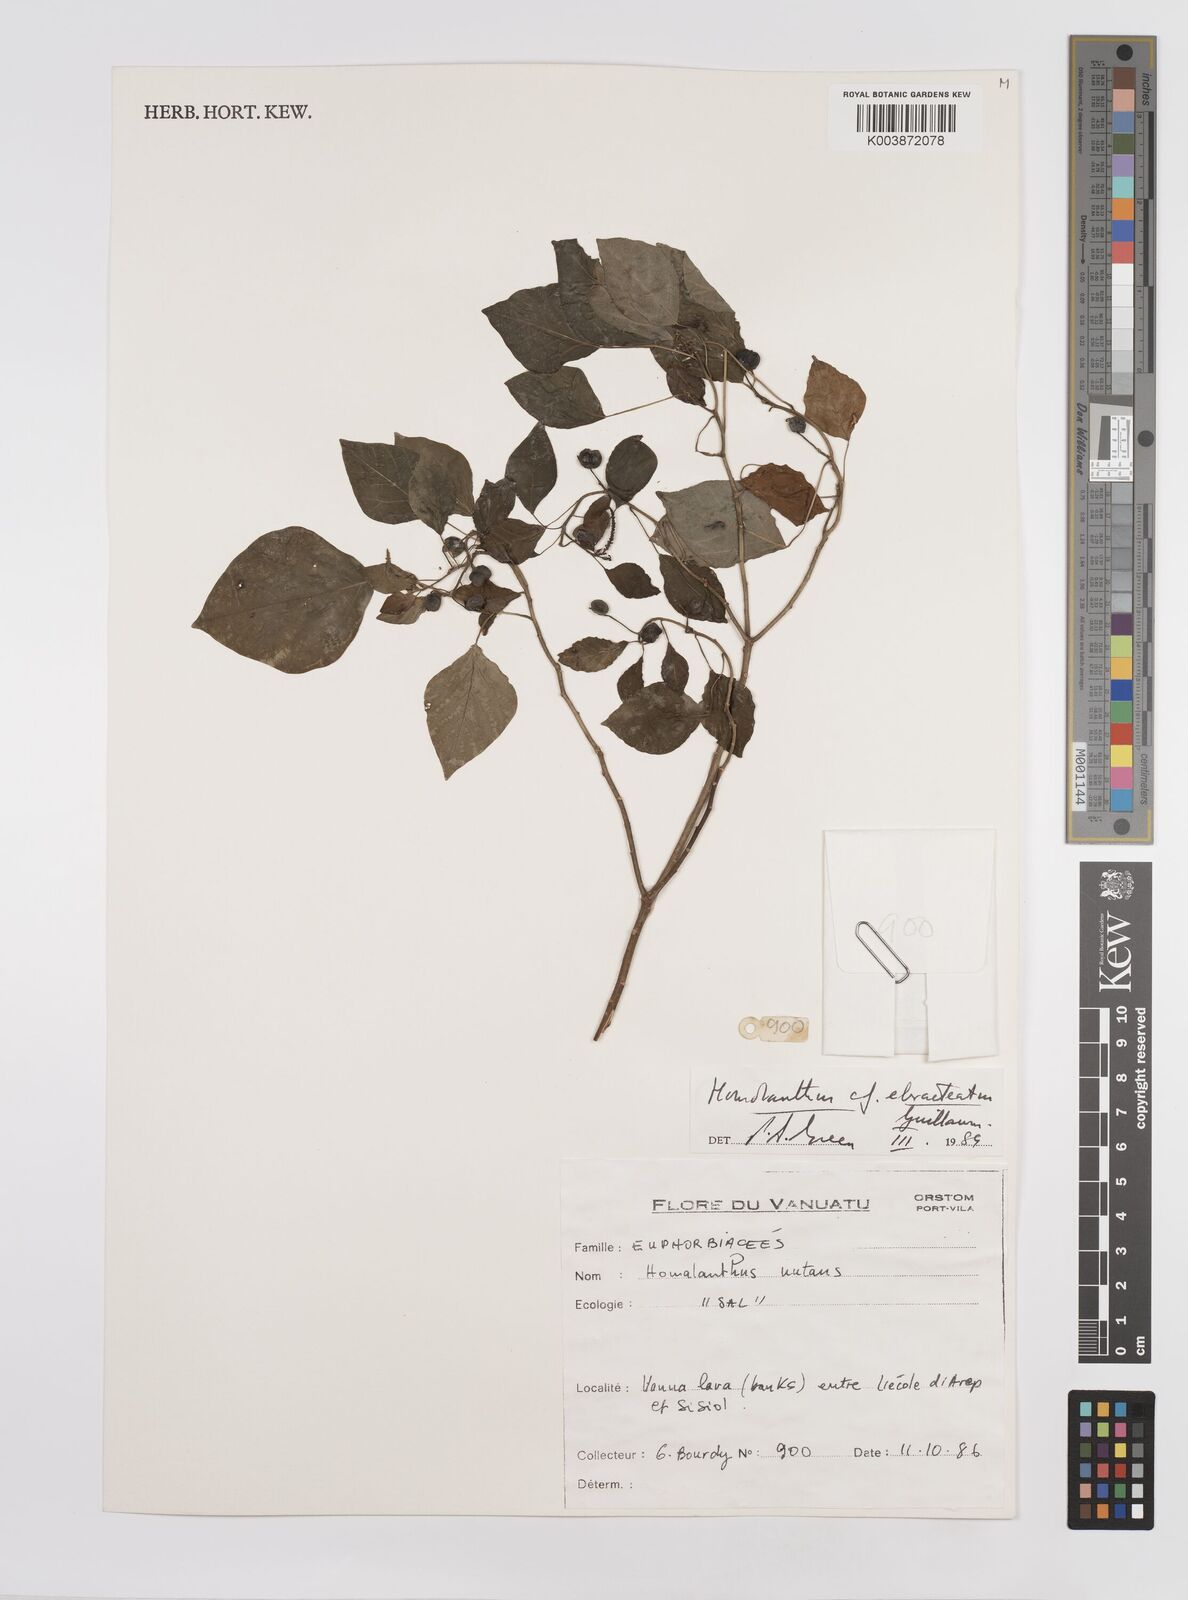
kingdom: Plantae
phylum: Tracheophyta
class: Magnoliopsida
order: Malpighiales
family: Euphorbiaceae
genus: Homalanthus
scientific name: Homalanthus ebracteatua
